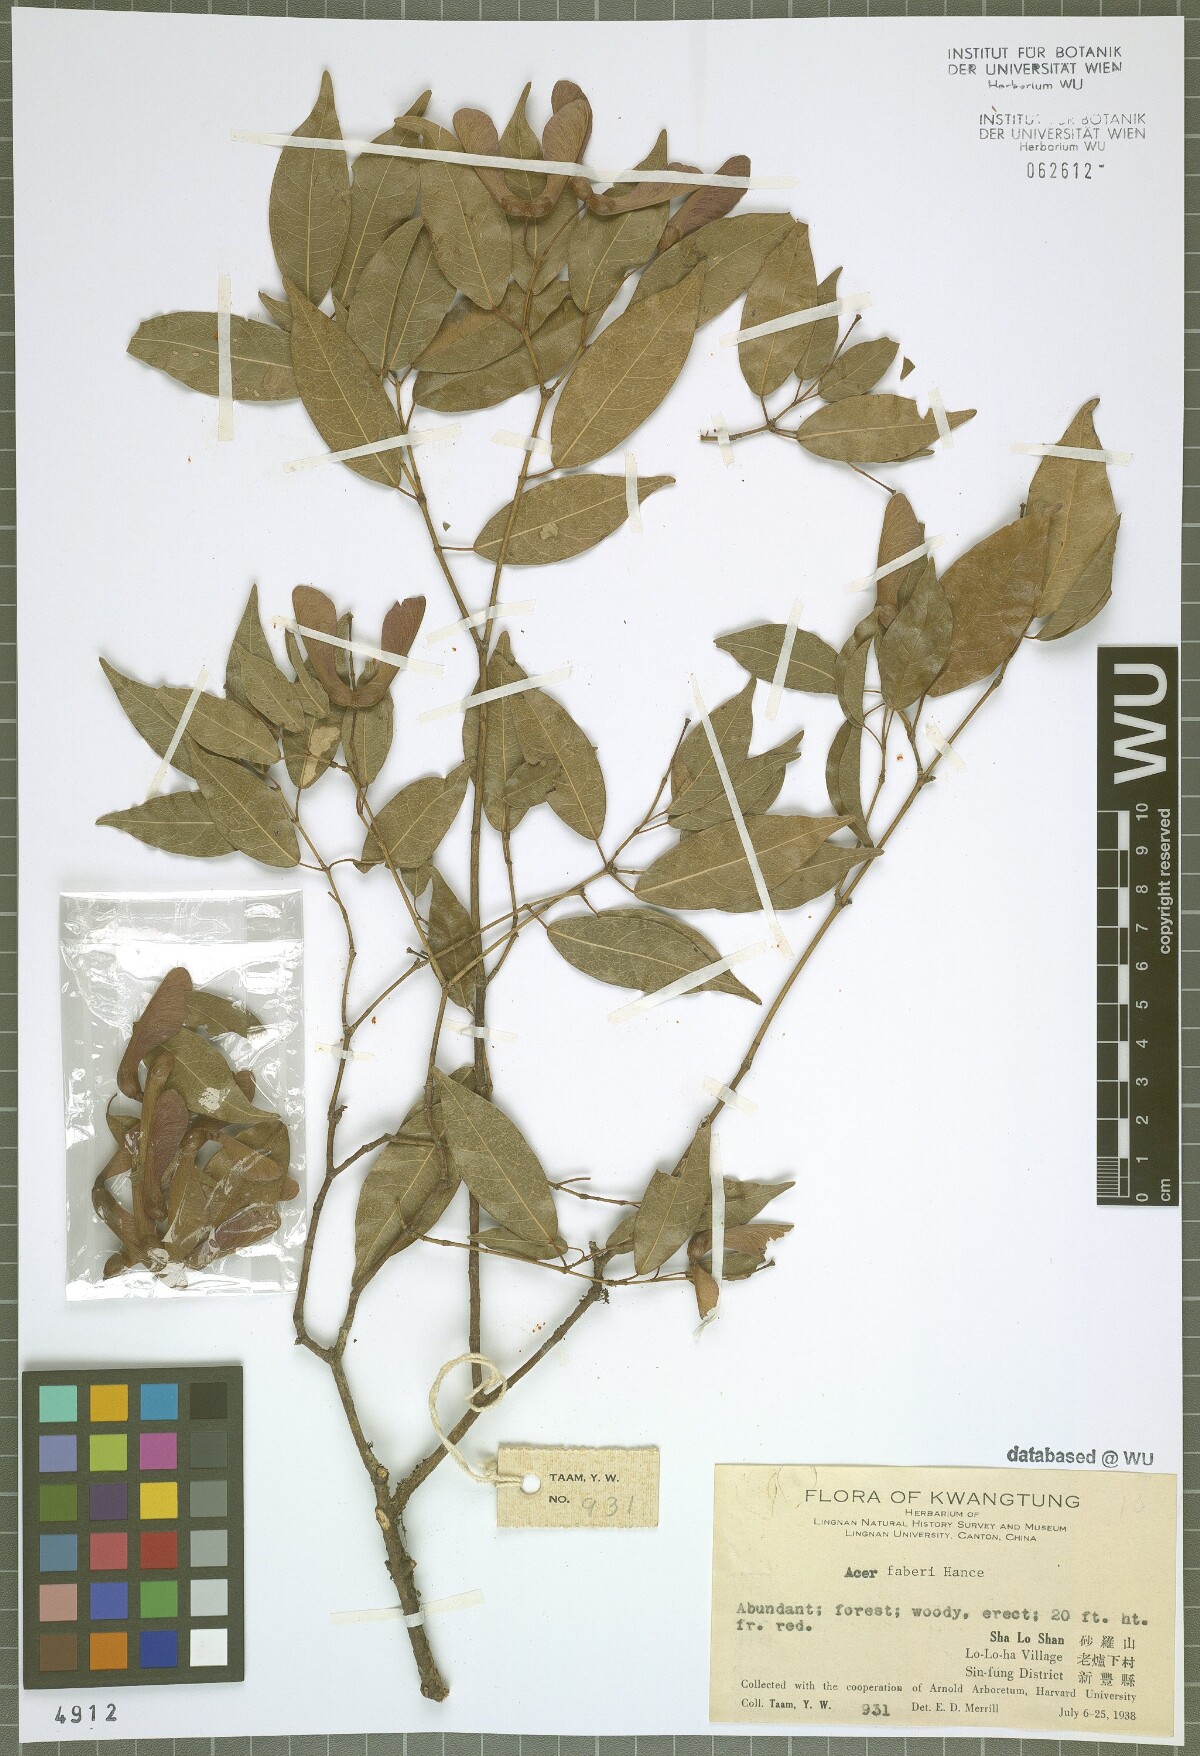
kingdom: Plantae
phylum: Tracheophyta
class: Magnoliopsida
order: Sapindales
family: Sapindaceae
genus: Acer
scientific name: Acer fabri
